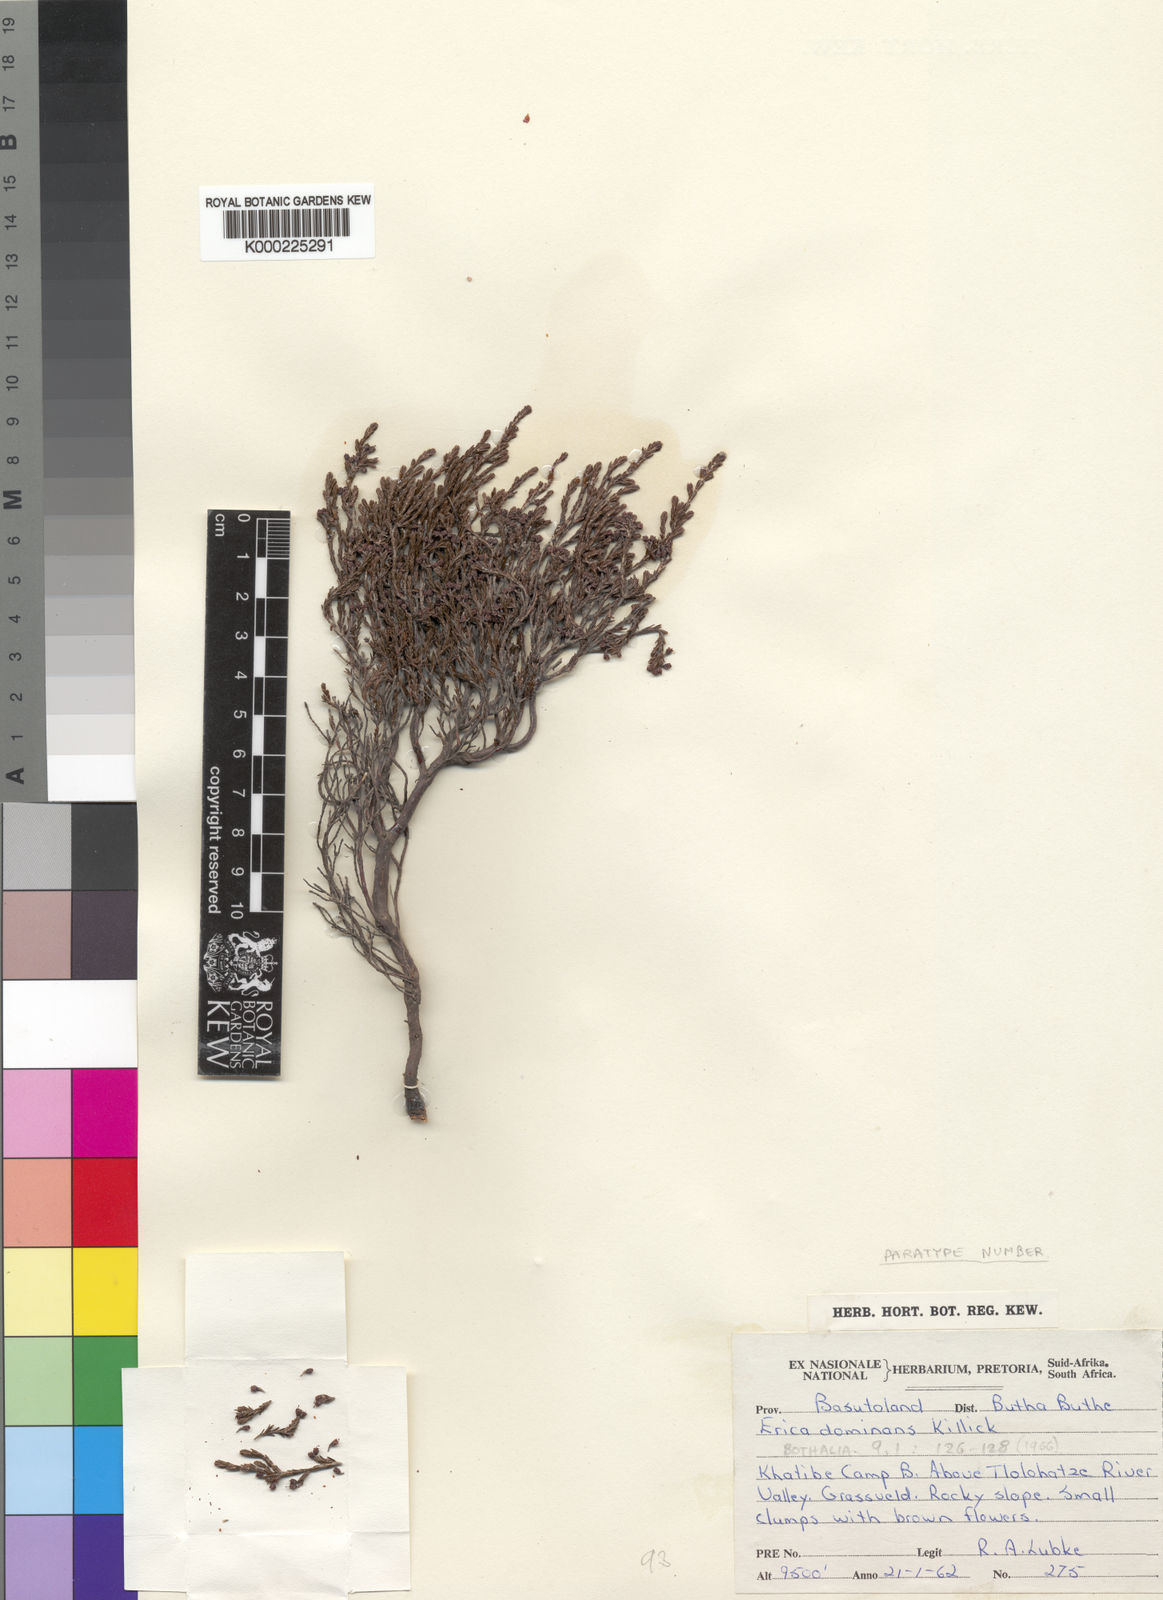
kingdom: Plantae
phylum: Tracheophyta
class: Magnoliopsida
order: Ericales
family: Ericaceae
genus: Erica
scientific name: Erica dominans
